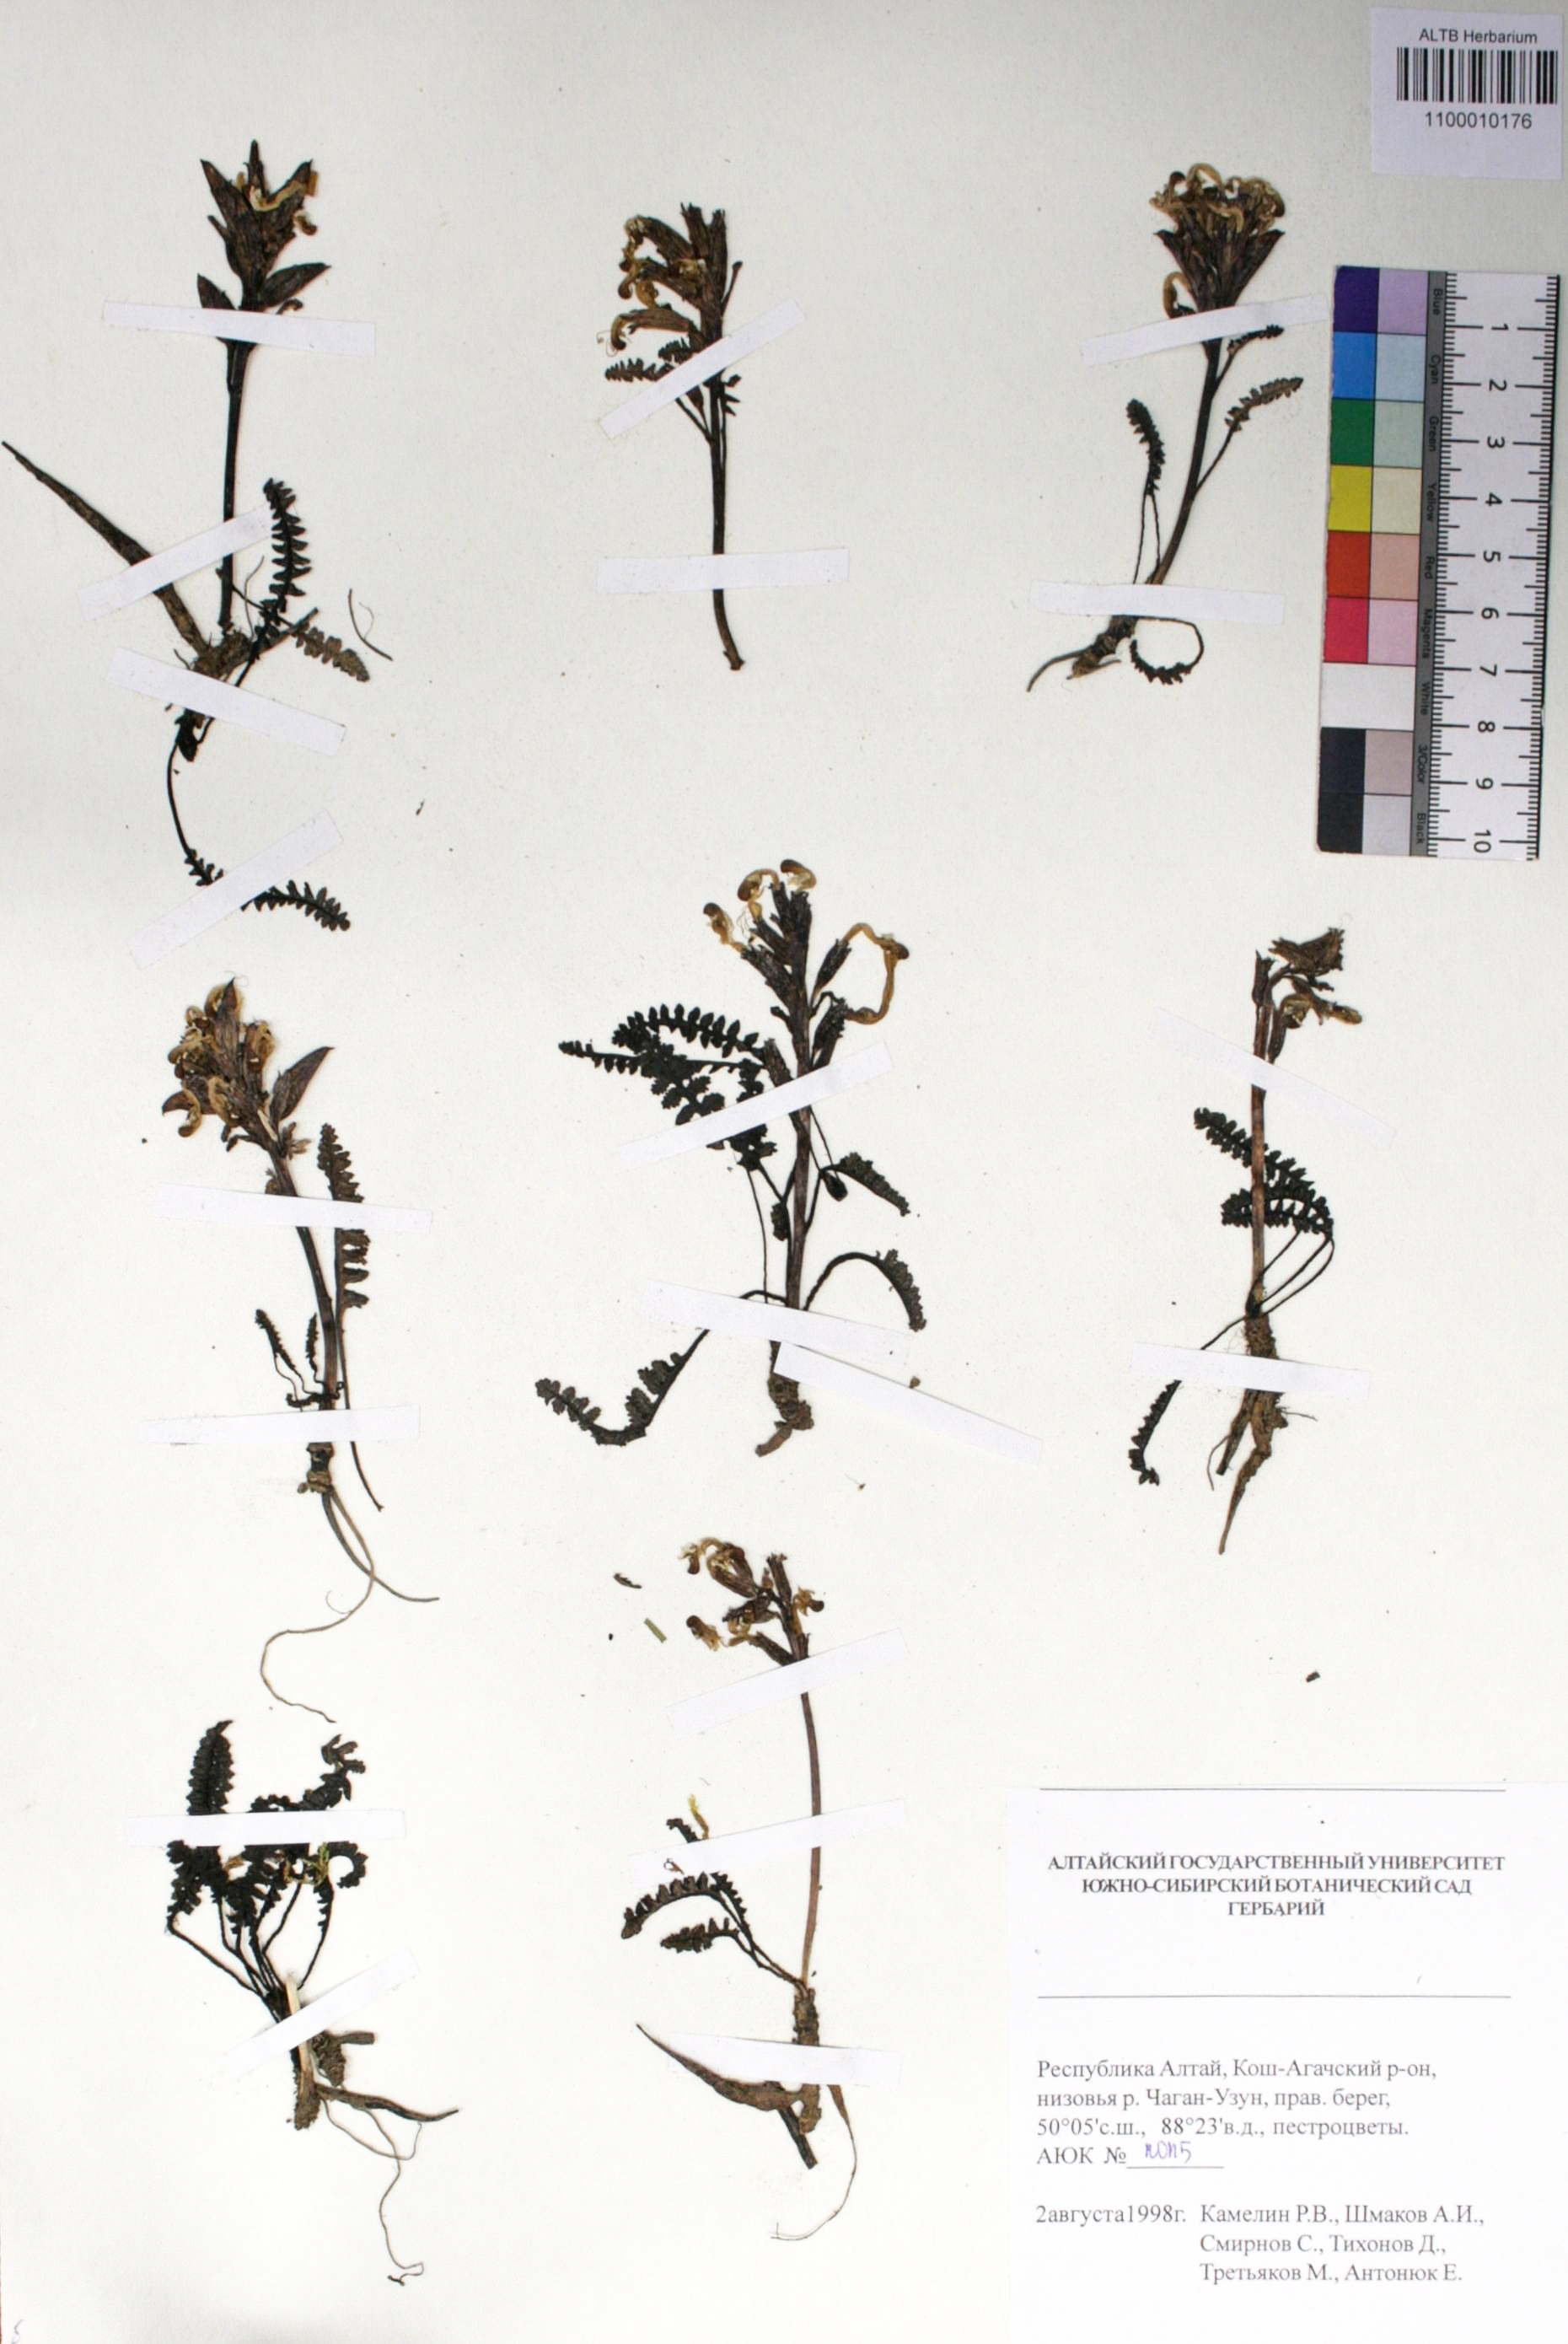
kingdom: Plantae
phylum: Tracheophyta
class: Magnoliopsida
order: Lamiales
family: Orobanchaceae
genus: Pedicularis
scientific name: Pedicularis anthemifolia
